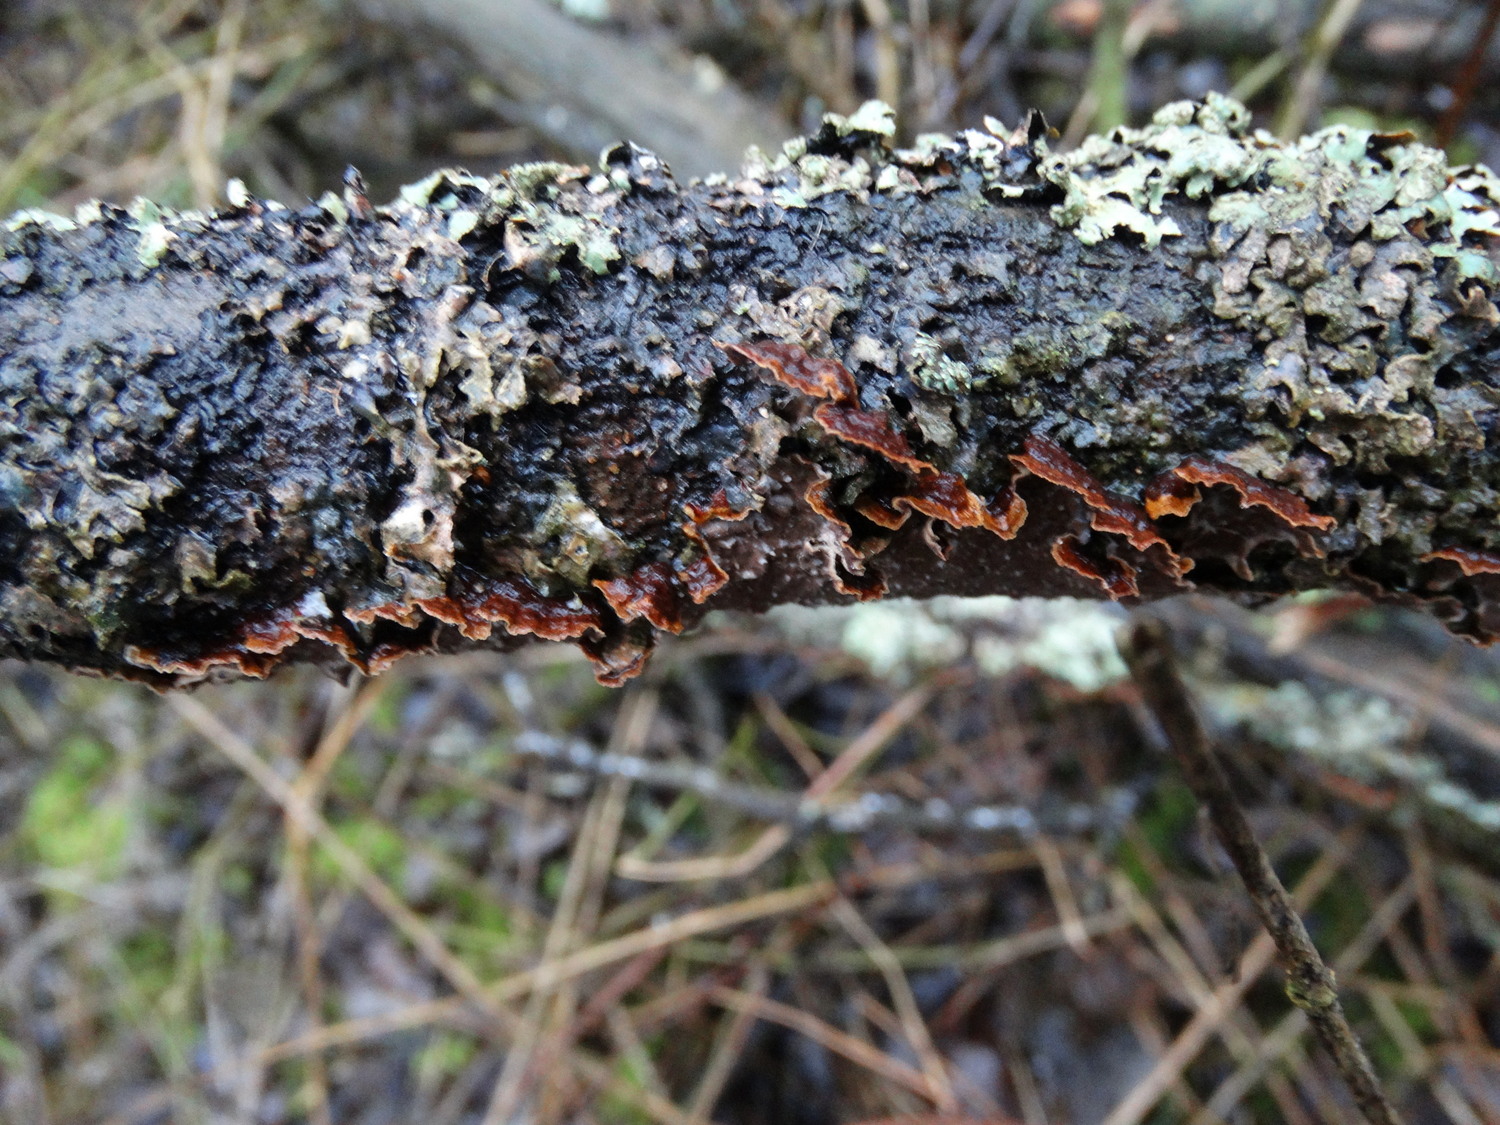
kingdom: Fungi
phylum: Basidiomycota
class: Agaricomycetes
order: Hymenochaetales
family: Hymenochaetaceae
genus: Hydnoporia
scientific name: Hydnoporia tabacina
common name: tobaksbrun ruslædersvamp
